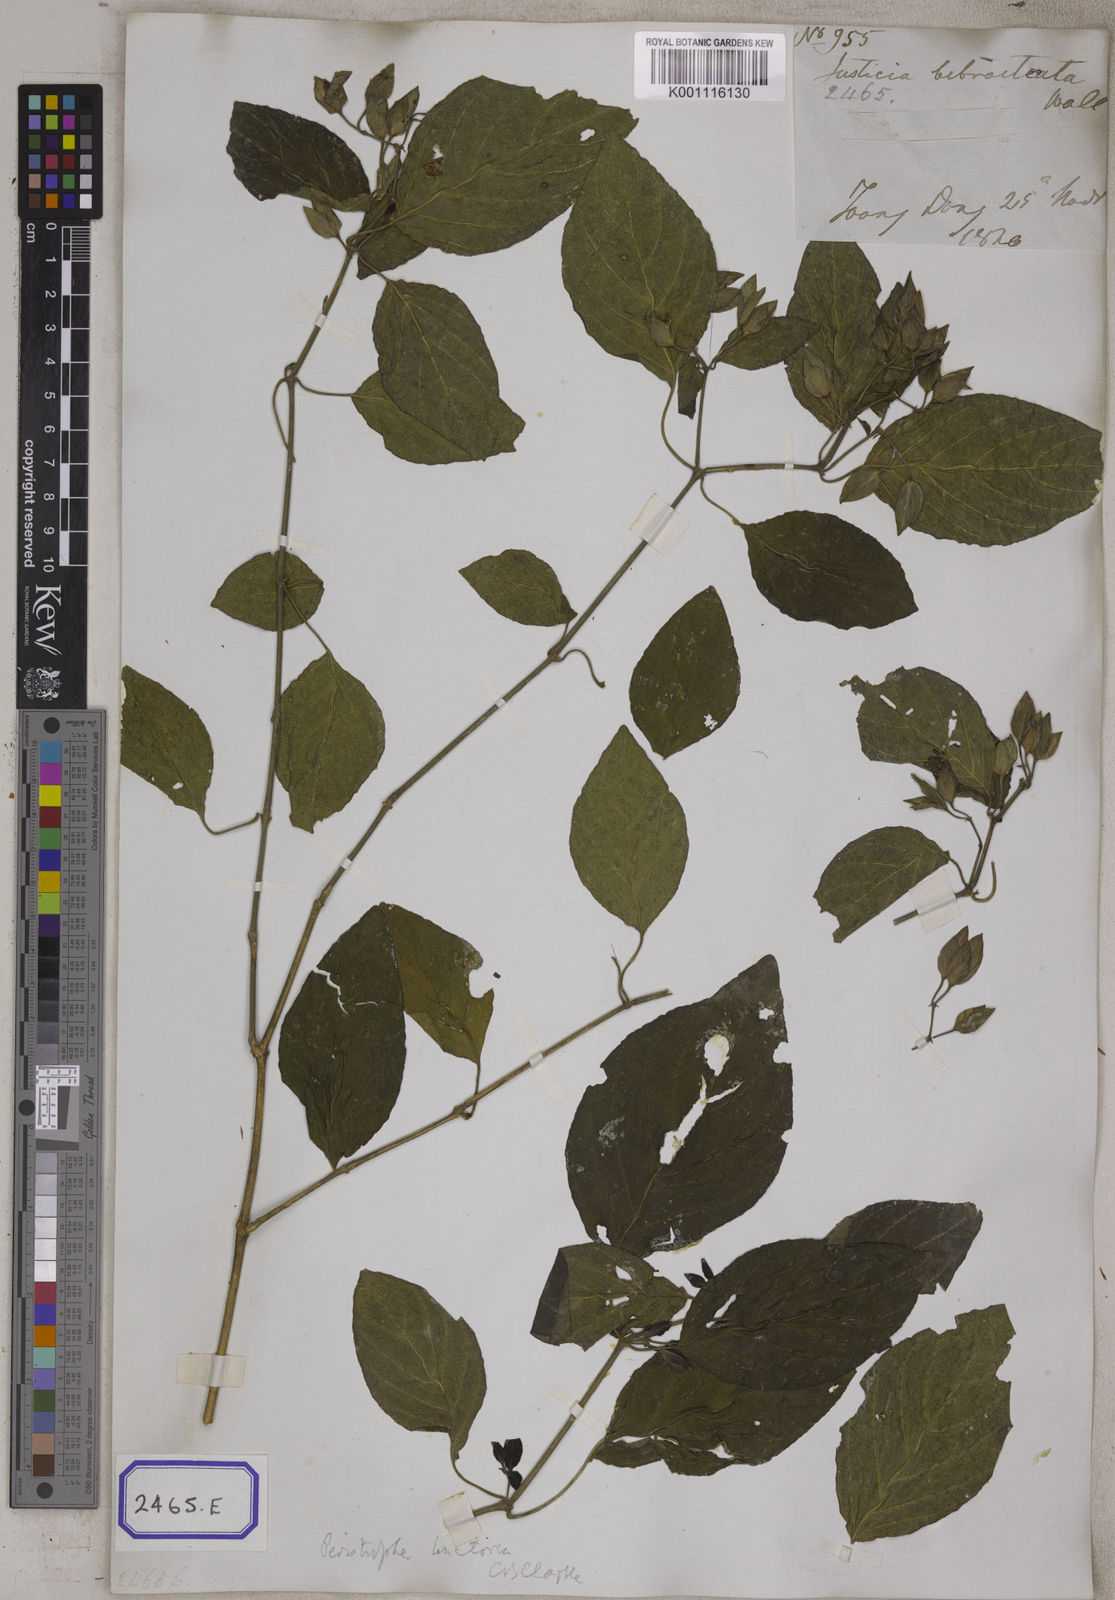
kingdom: Plantae
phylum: Tracheophyta
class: Magnoliopsida
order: Lamiales
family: Acanthaceae
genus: Dicliptera
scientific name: Dicliptera tinctoria
